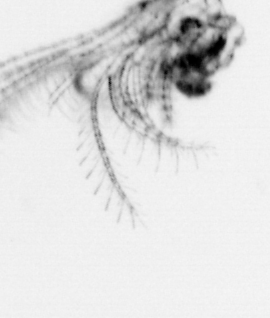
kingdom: Animalia
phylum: Arthropoda
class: Maxillopoda
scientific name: Maxillopoda
